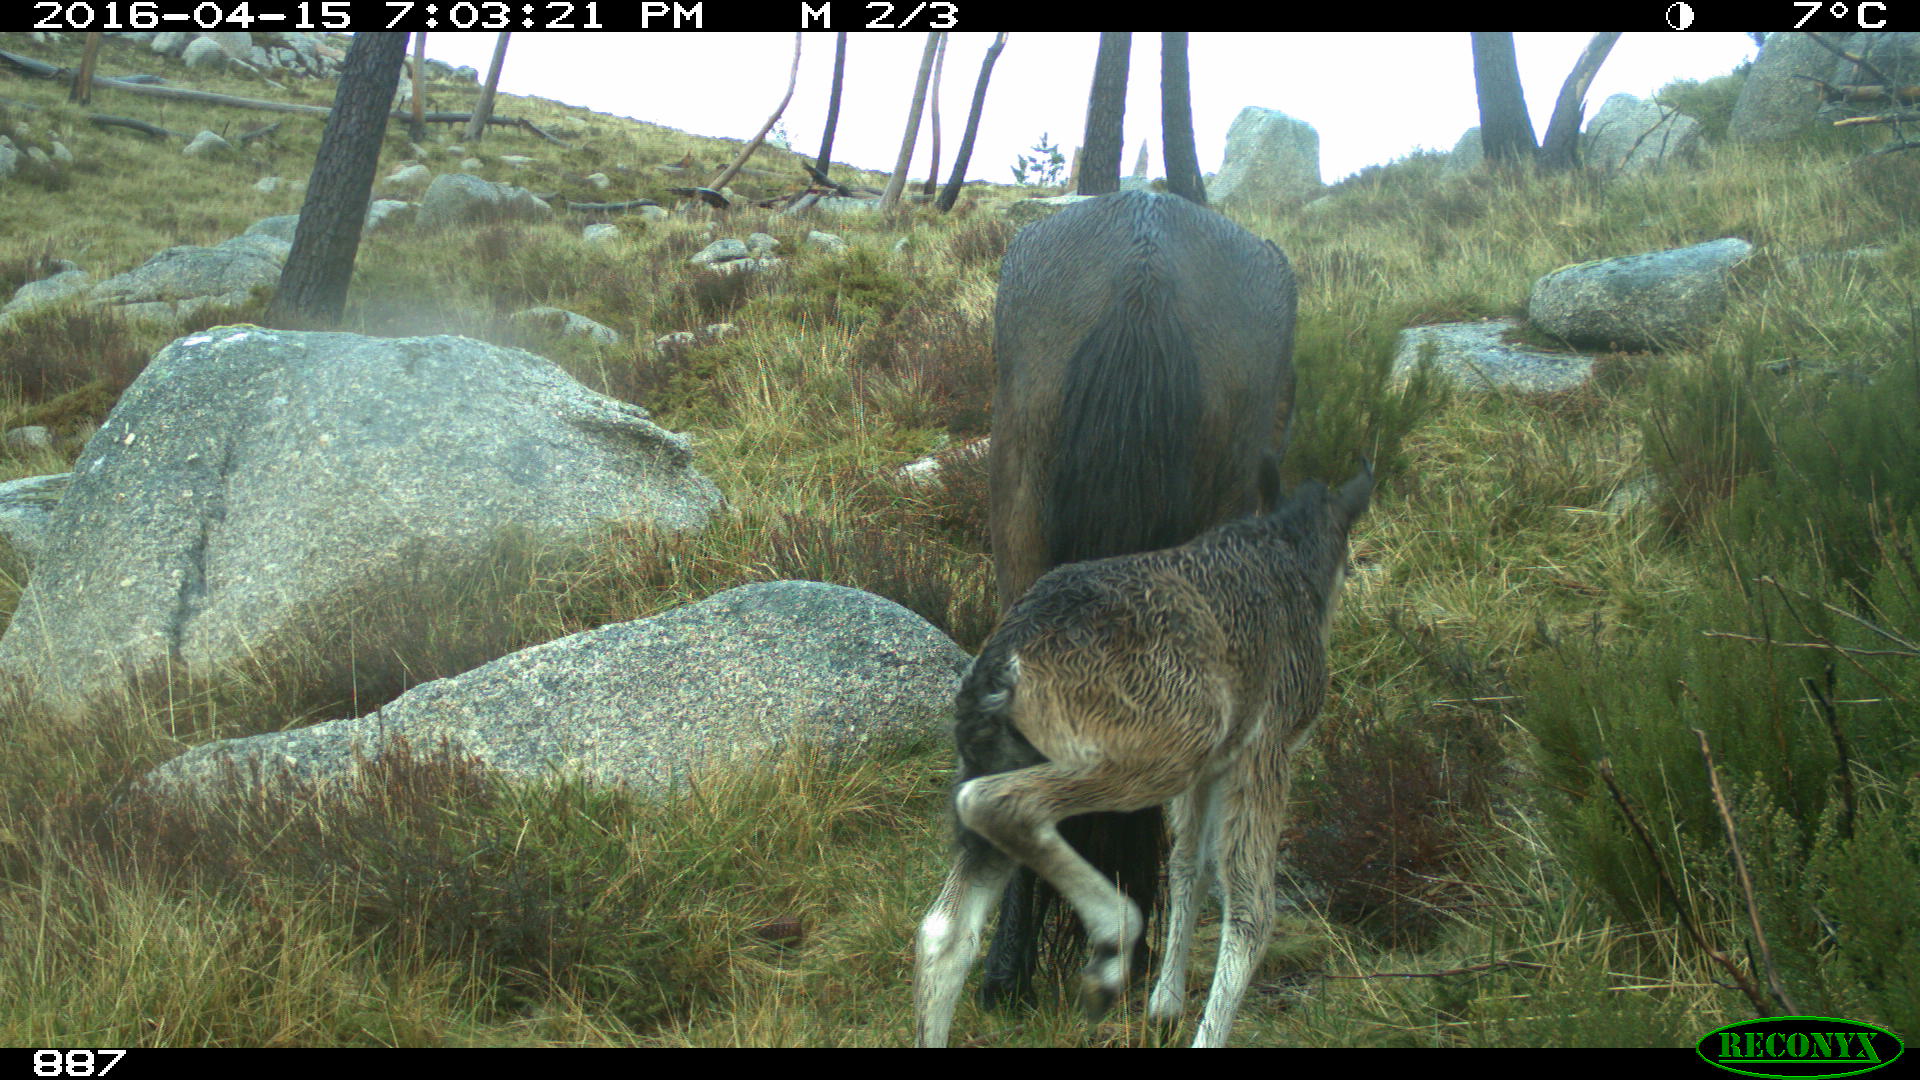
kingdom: Animalia
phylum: Chordata
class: Mammalia
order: Perissodactyla
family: Equidae
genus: Equus
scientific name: Equus caballus
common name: Horse
